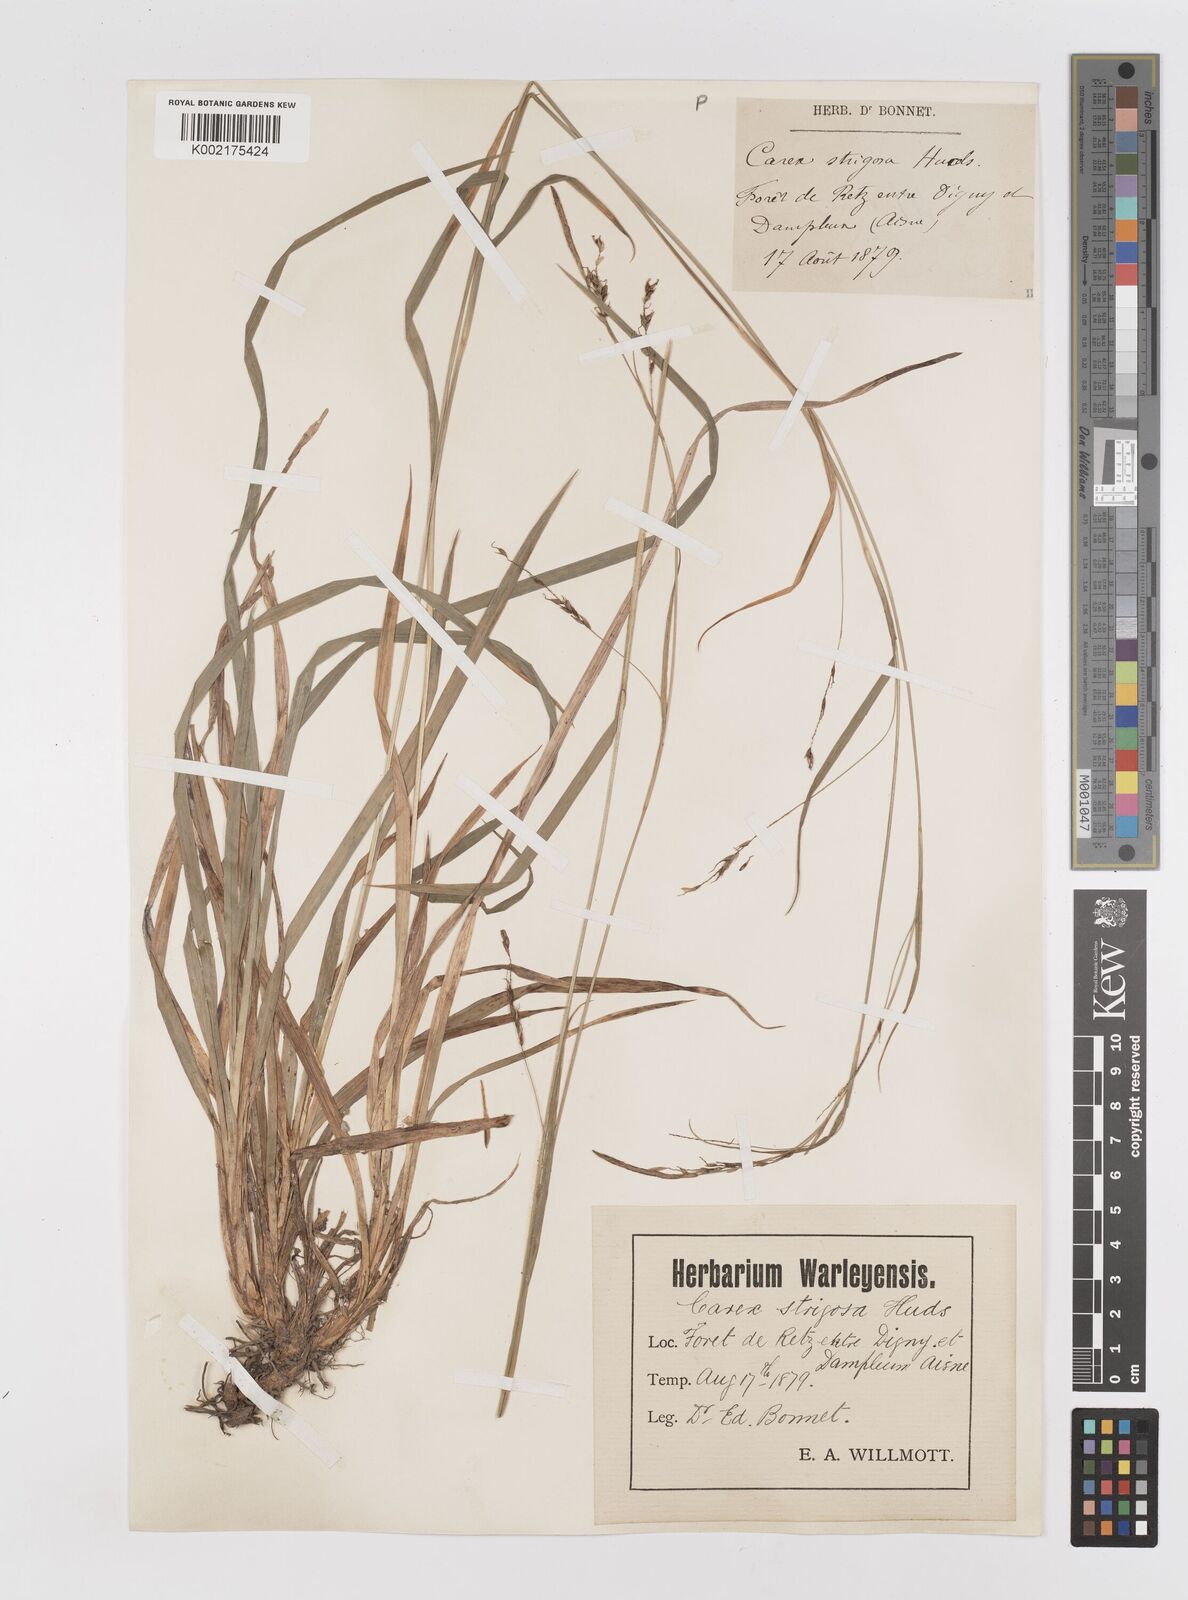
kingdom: Plantae
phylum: Tracheophyta
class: Liliopsida
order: Poales
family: Cyperaceae
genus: Carex
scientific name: Carex sylvatica
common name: Wood-sedge
